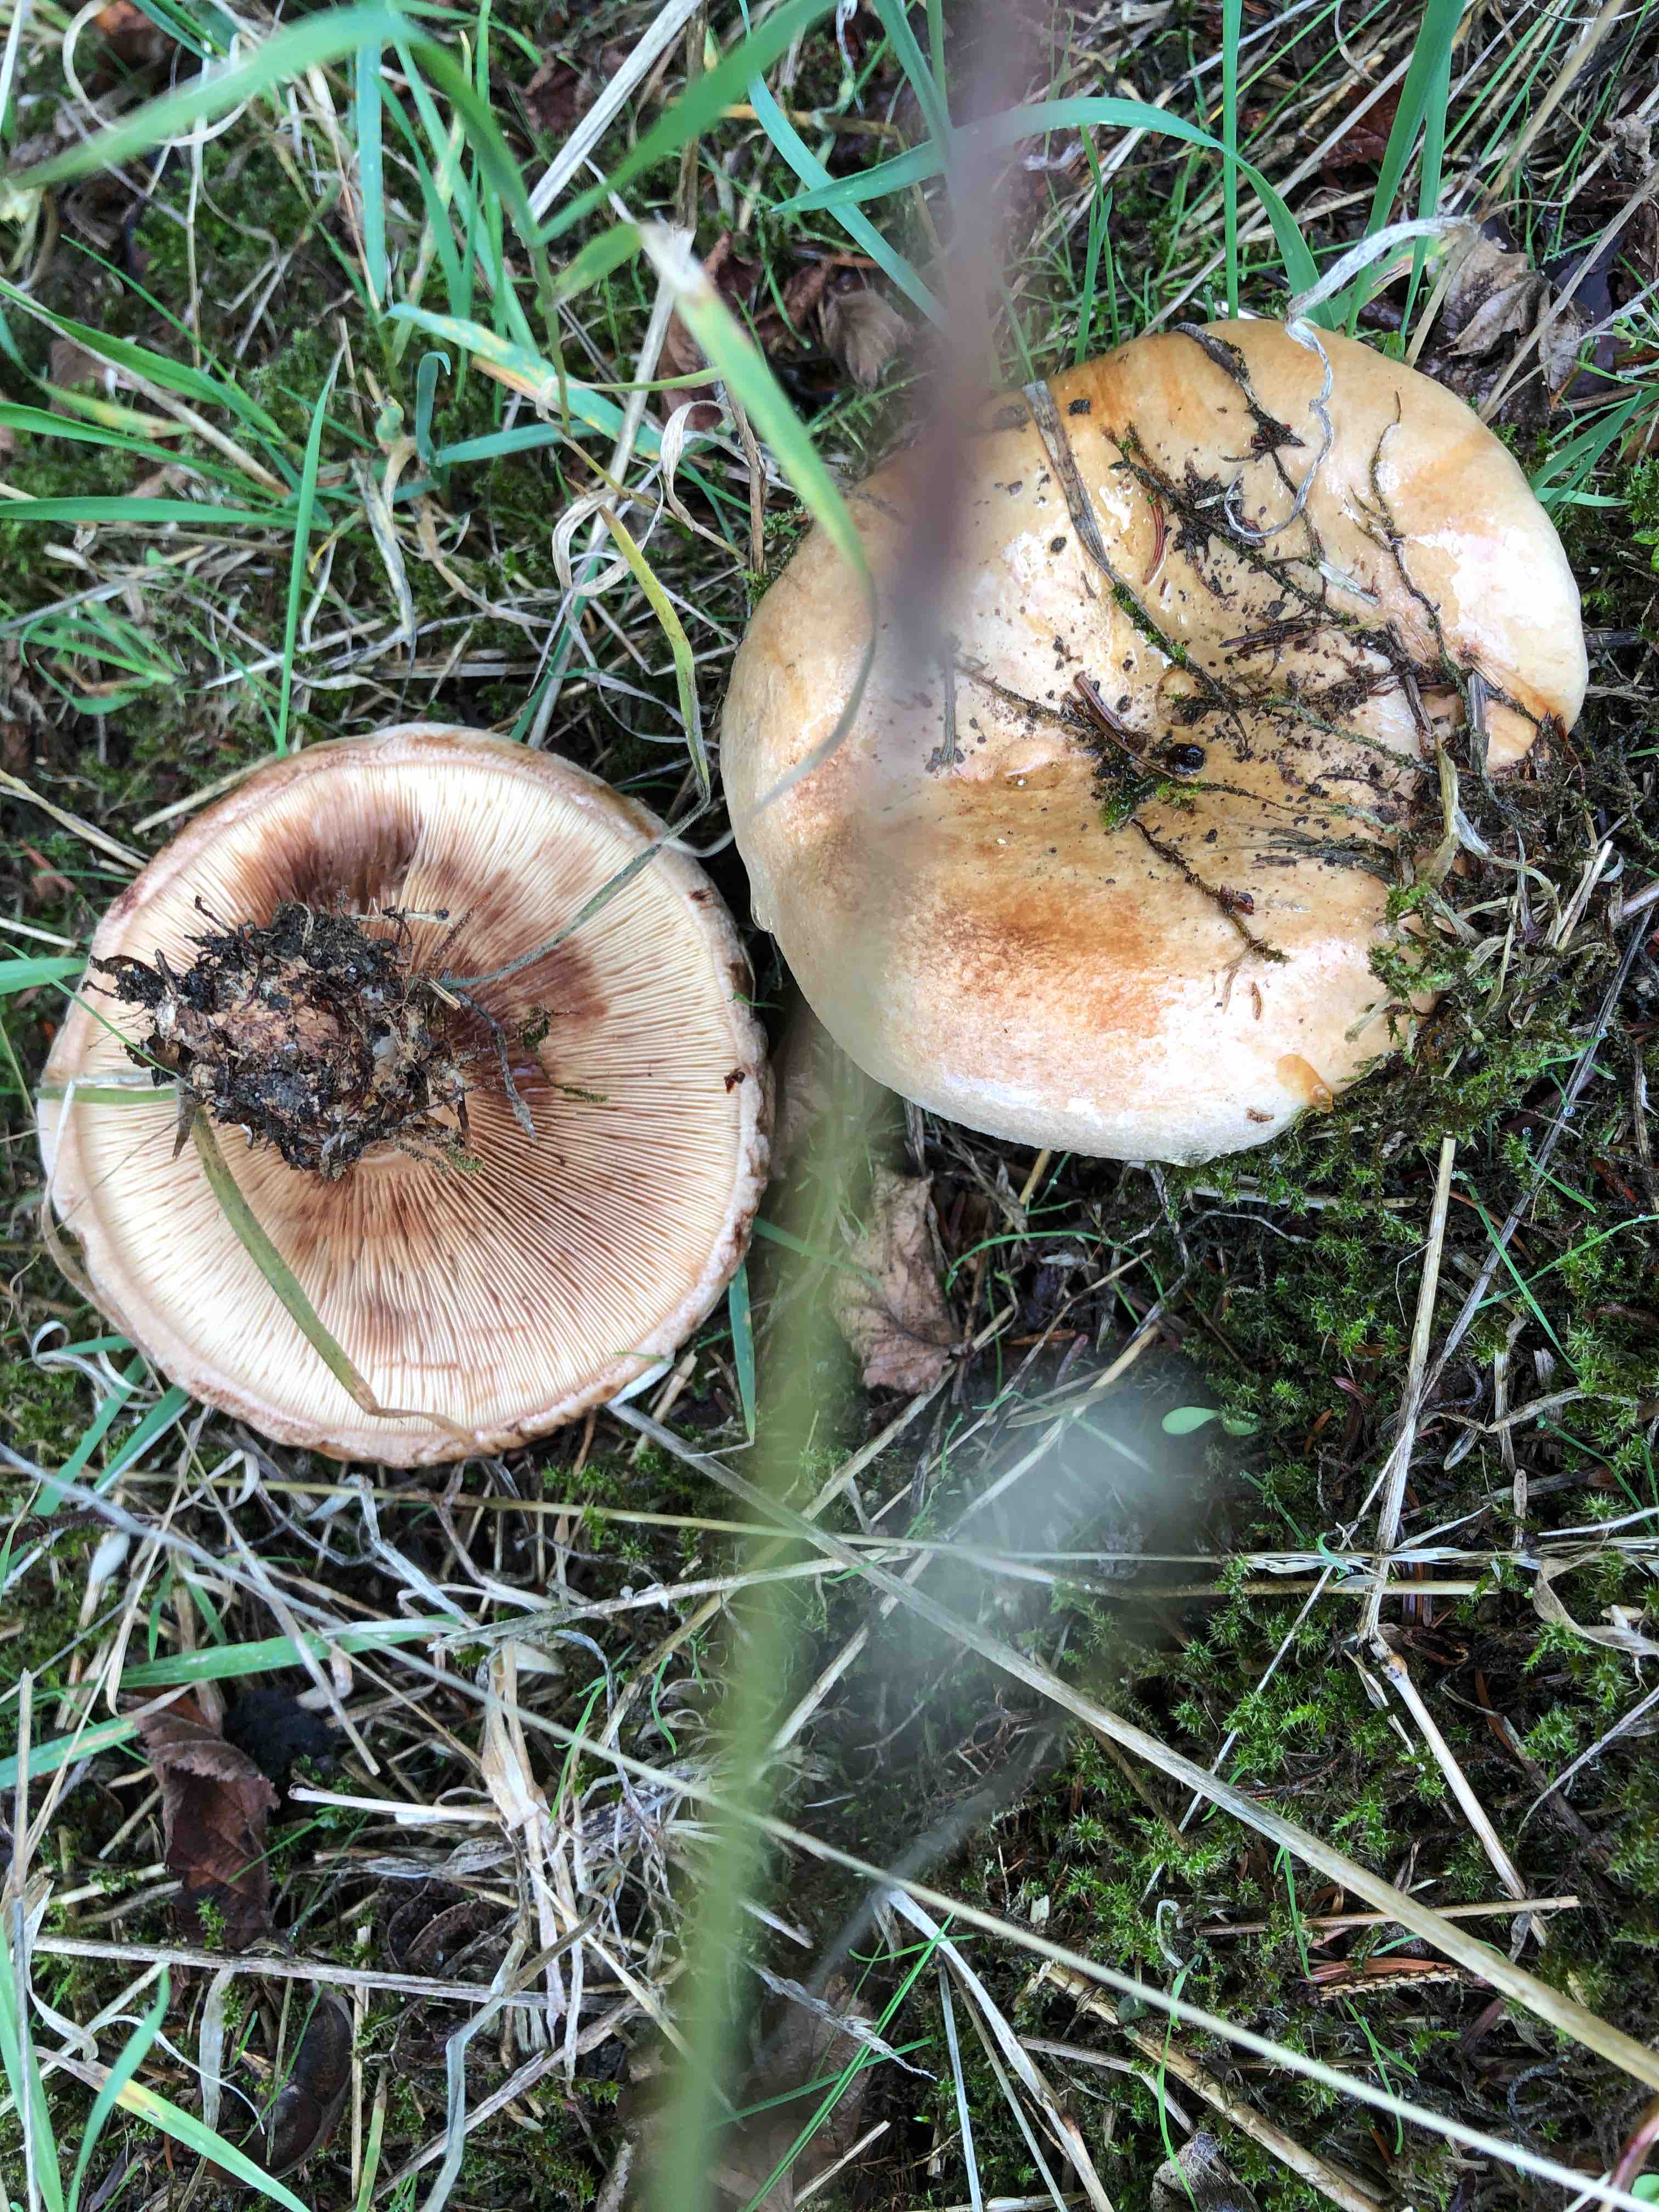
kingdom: Fungi
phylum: Basidiomycota
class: Agaricomycetes
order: Boletales
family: Paxillaceae
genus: Paxillus
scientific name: Paxillus
